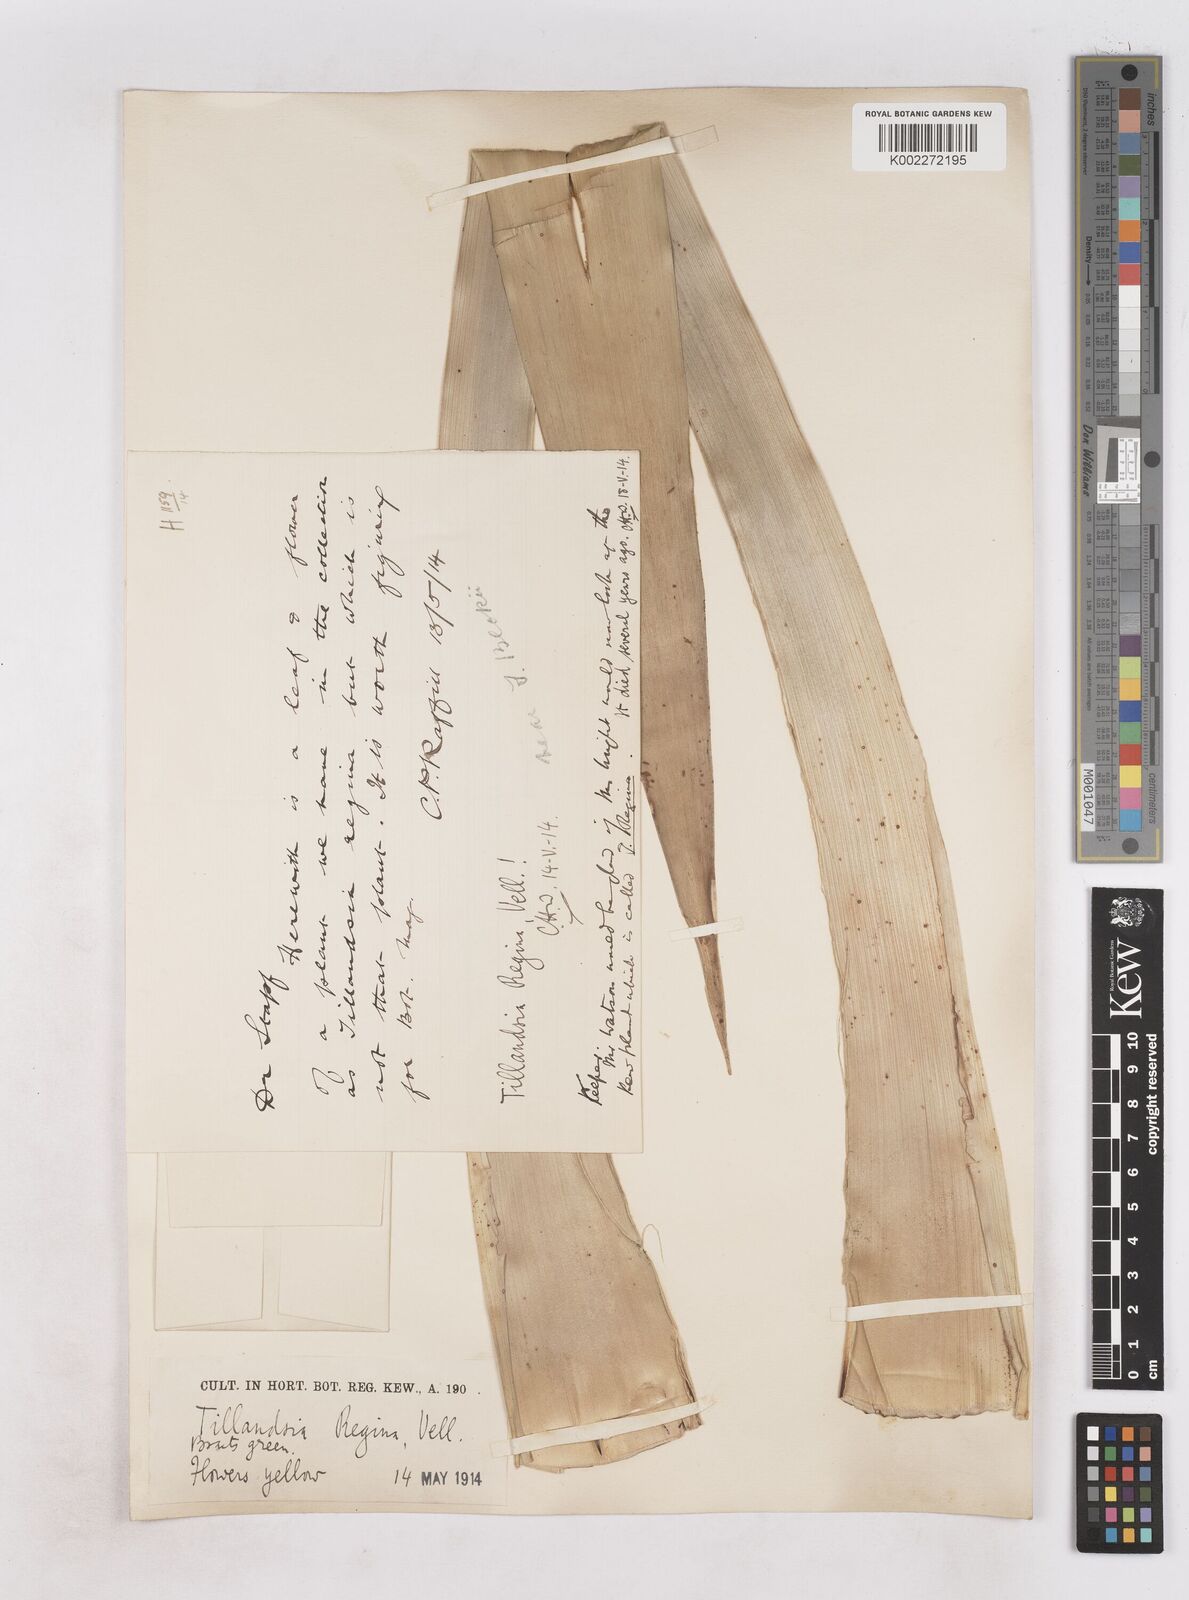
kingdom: Plantae
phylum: Tracheophyta
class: Liliopsida
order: Poales
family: Bromeliaceae
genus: Alcantarea
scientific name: Alcantarea regina
